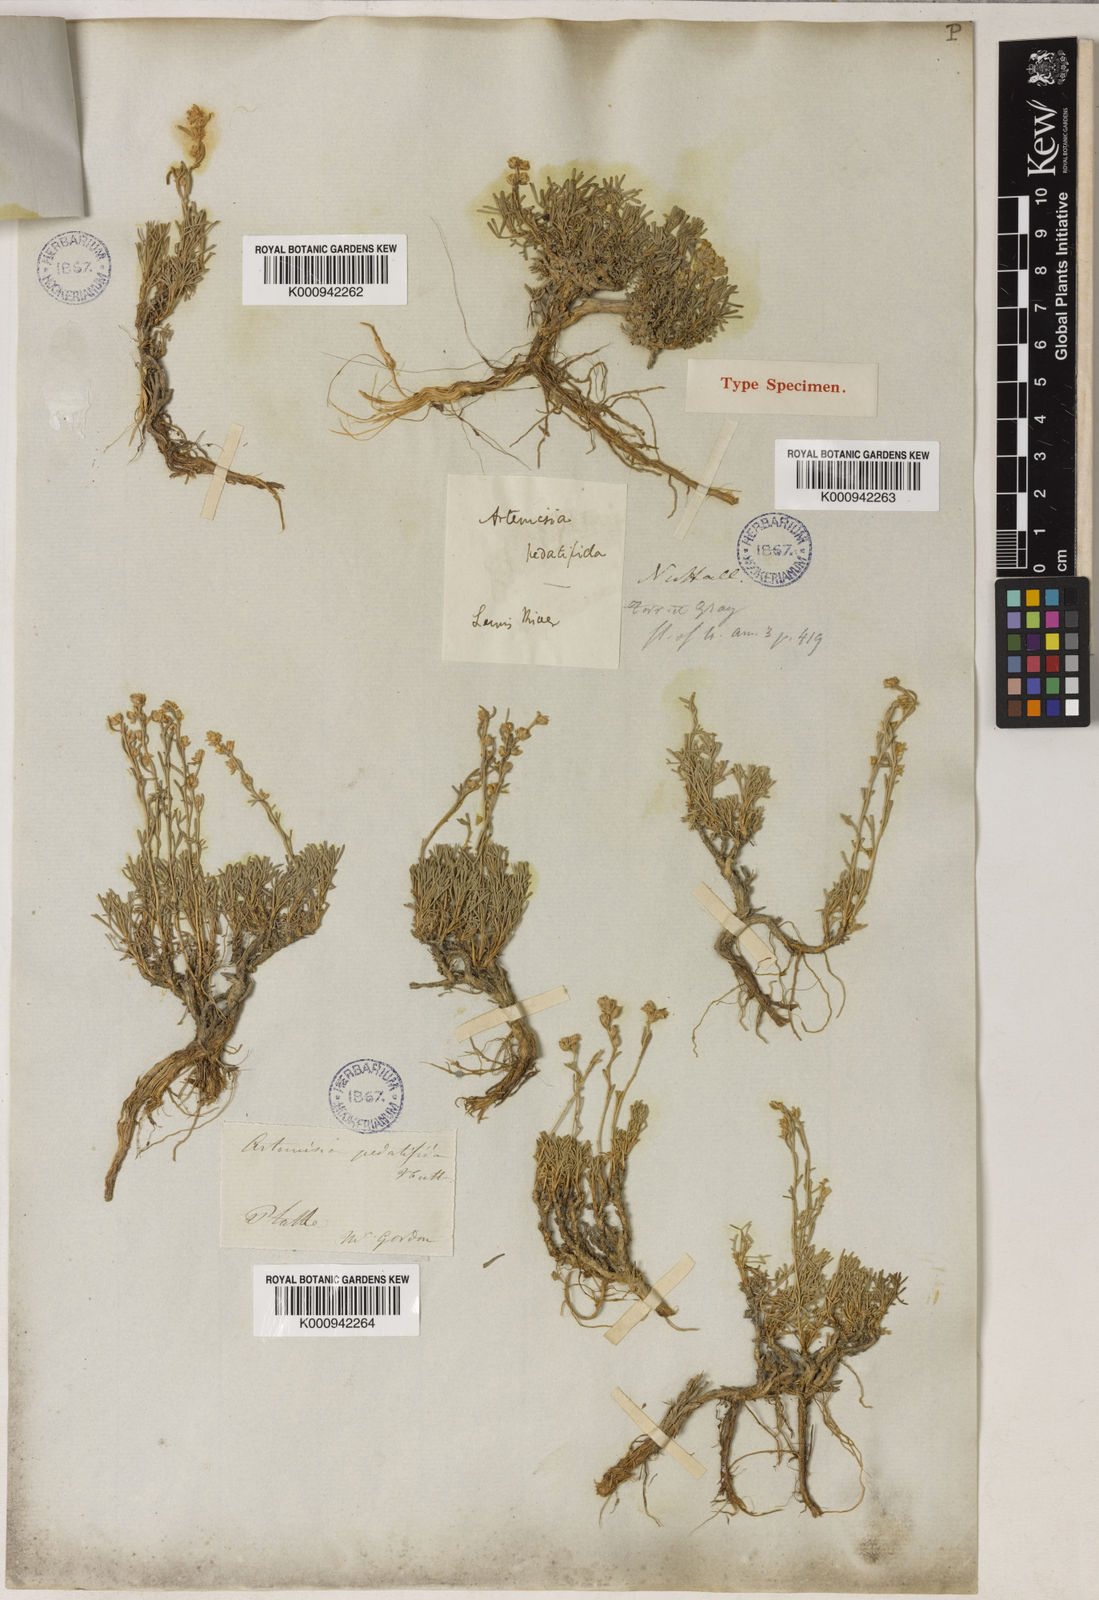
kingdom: Plantae
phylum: Tracheophyta
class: Magnoliopsida
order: Asterales
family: Asteraceae
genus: Artemisia
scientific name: Artemisia pedatifida
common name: Matted sagewort
